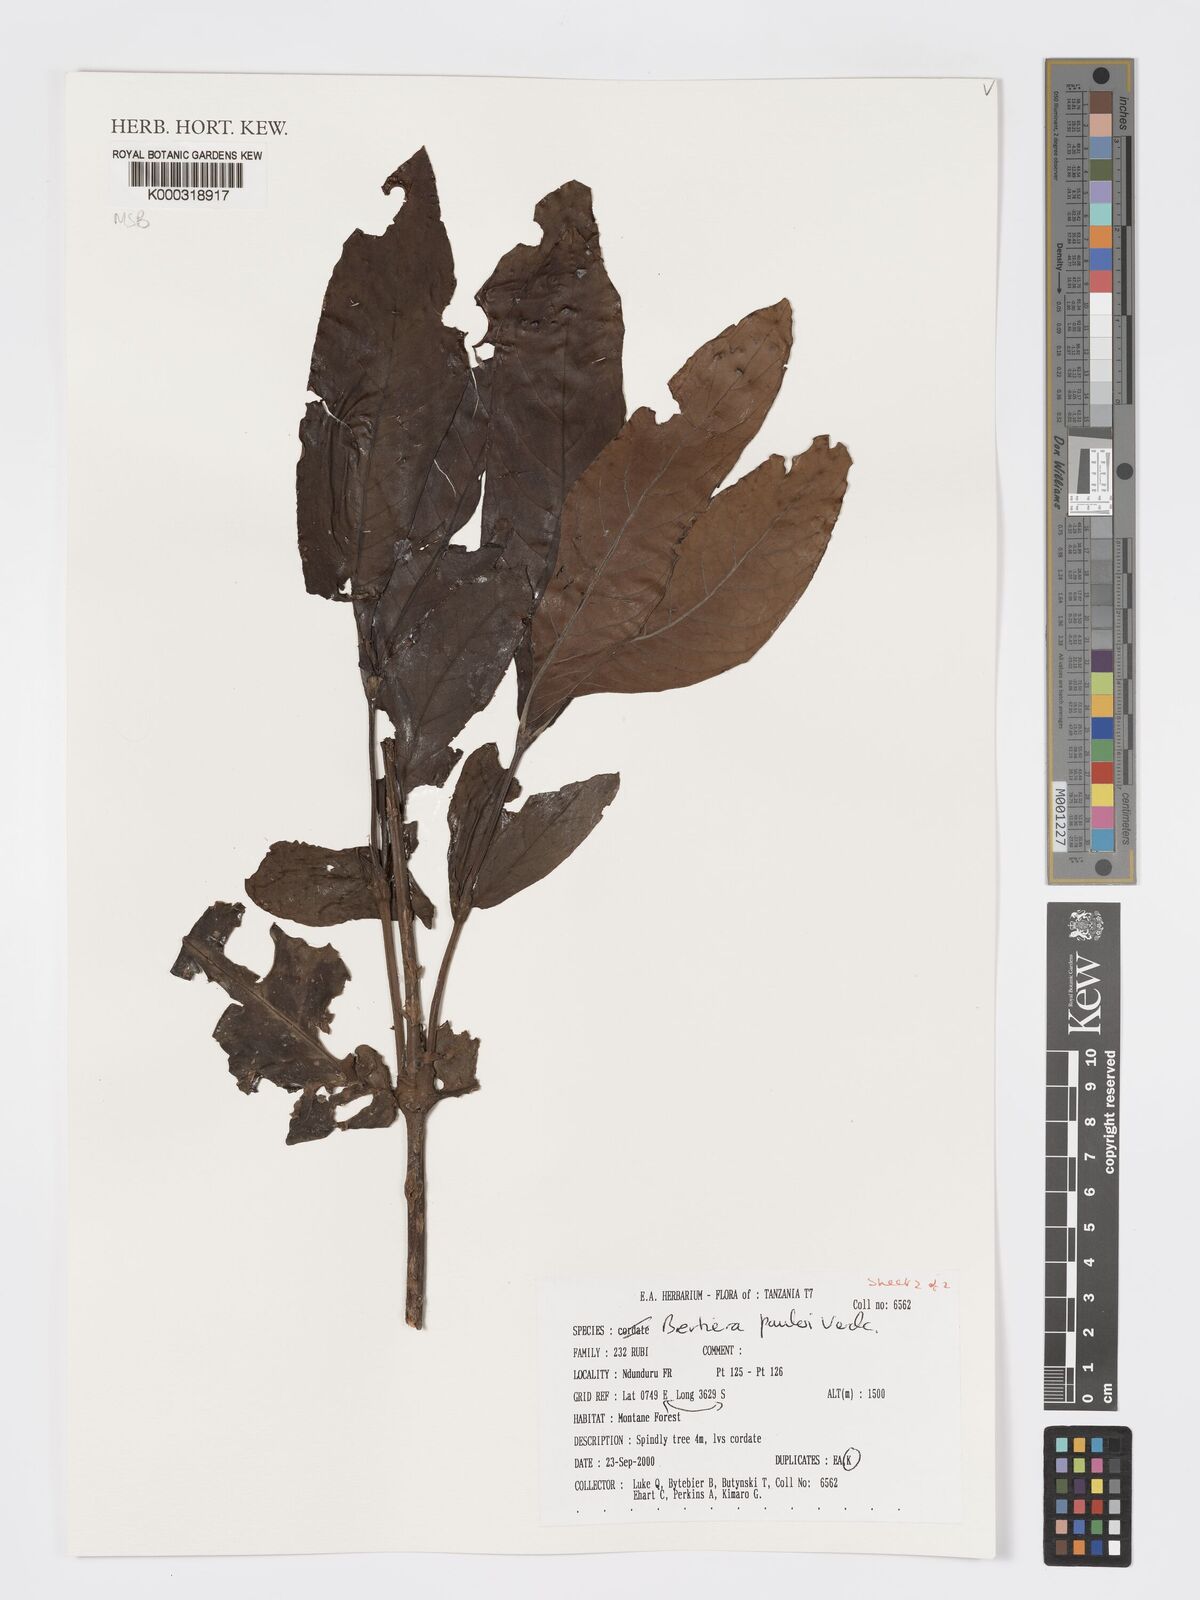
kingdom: Plantae
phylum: Tracheophyta
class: Magnoliopsida
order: Gentianales
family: Rubiaceae
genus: Bertiera
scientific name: Bertiera pauloi
